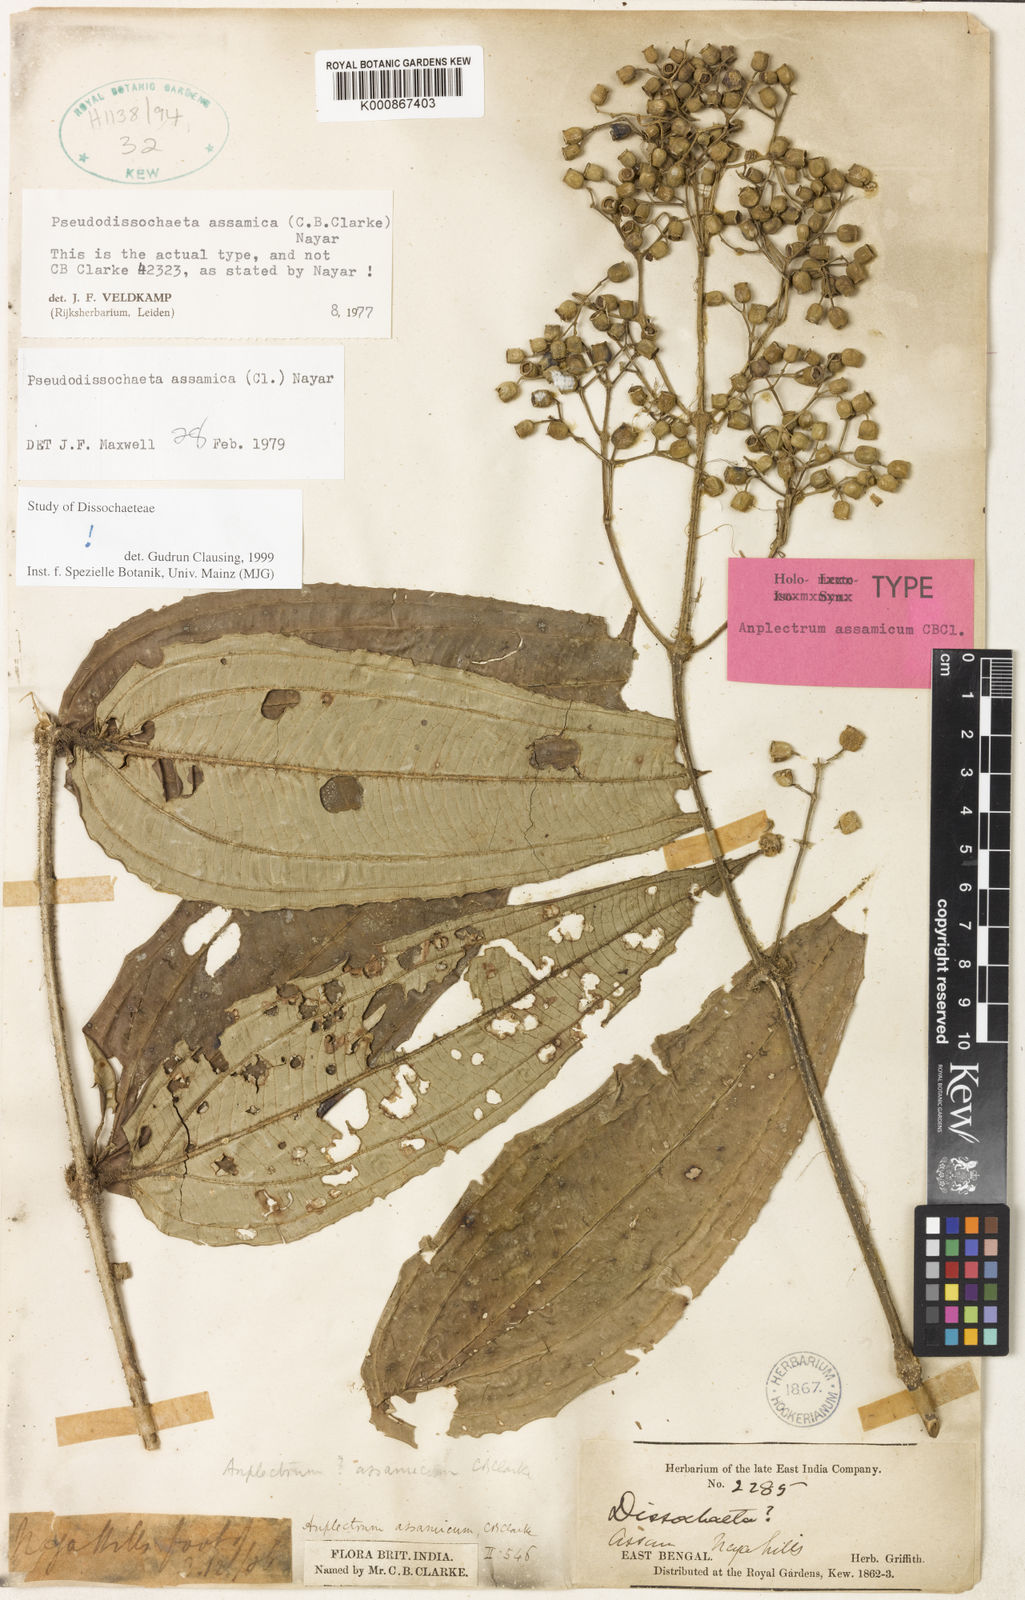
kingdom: Plantae
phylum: Tracheophyta
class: Magnoliopsida
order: Myrtales
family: Melastomataceae
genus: Pseudodissochaeta
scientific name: Pseudodissochaeta assamica
